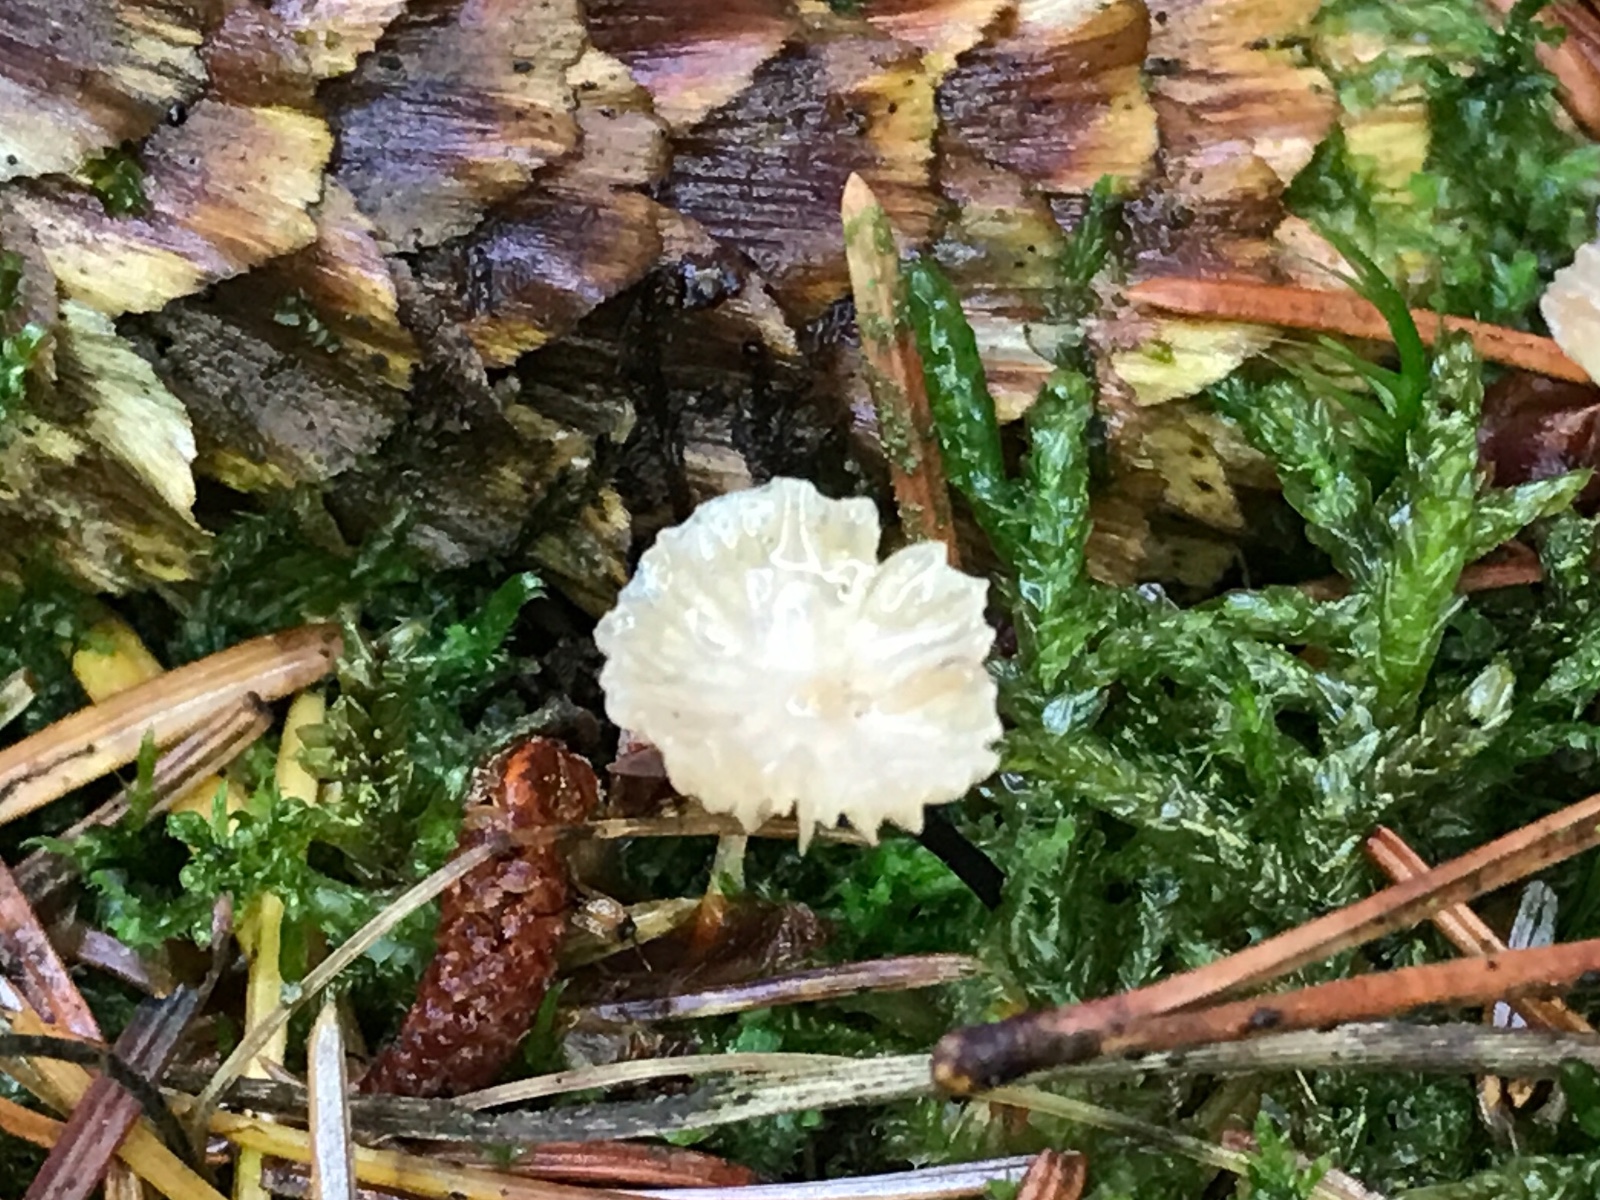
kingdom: Fungi
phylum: Basidiomycota
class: Agaricomycetes
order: Agaricales
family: Omphalotaceae
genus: Paragymnopus
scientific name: Paragymnopus perforans
